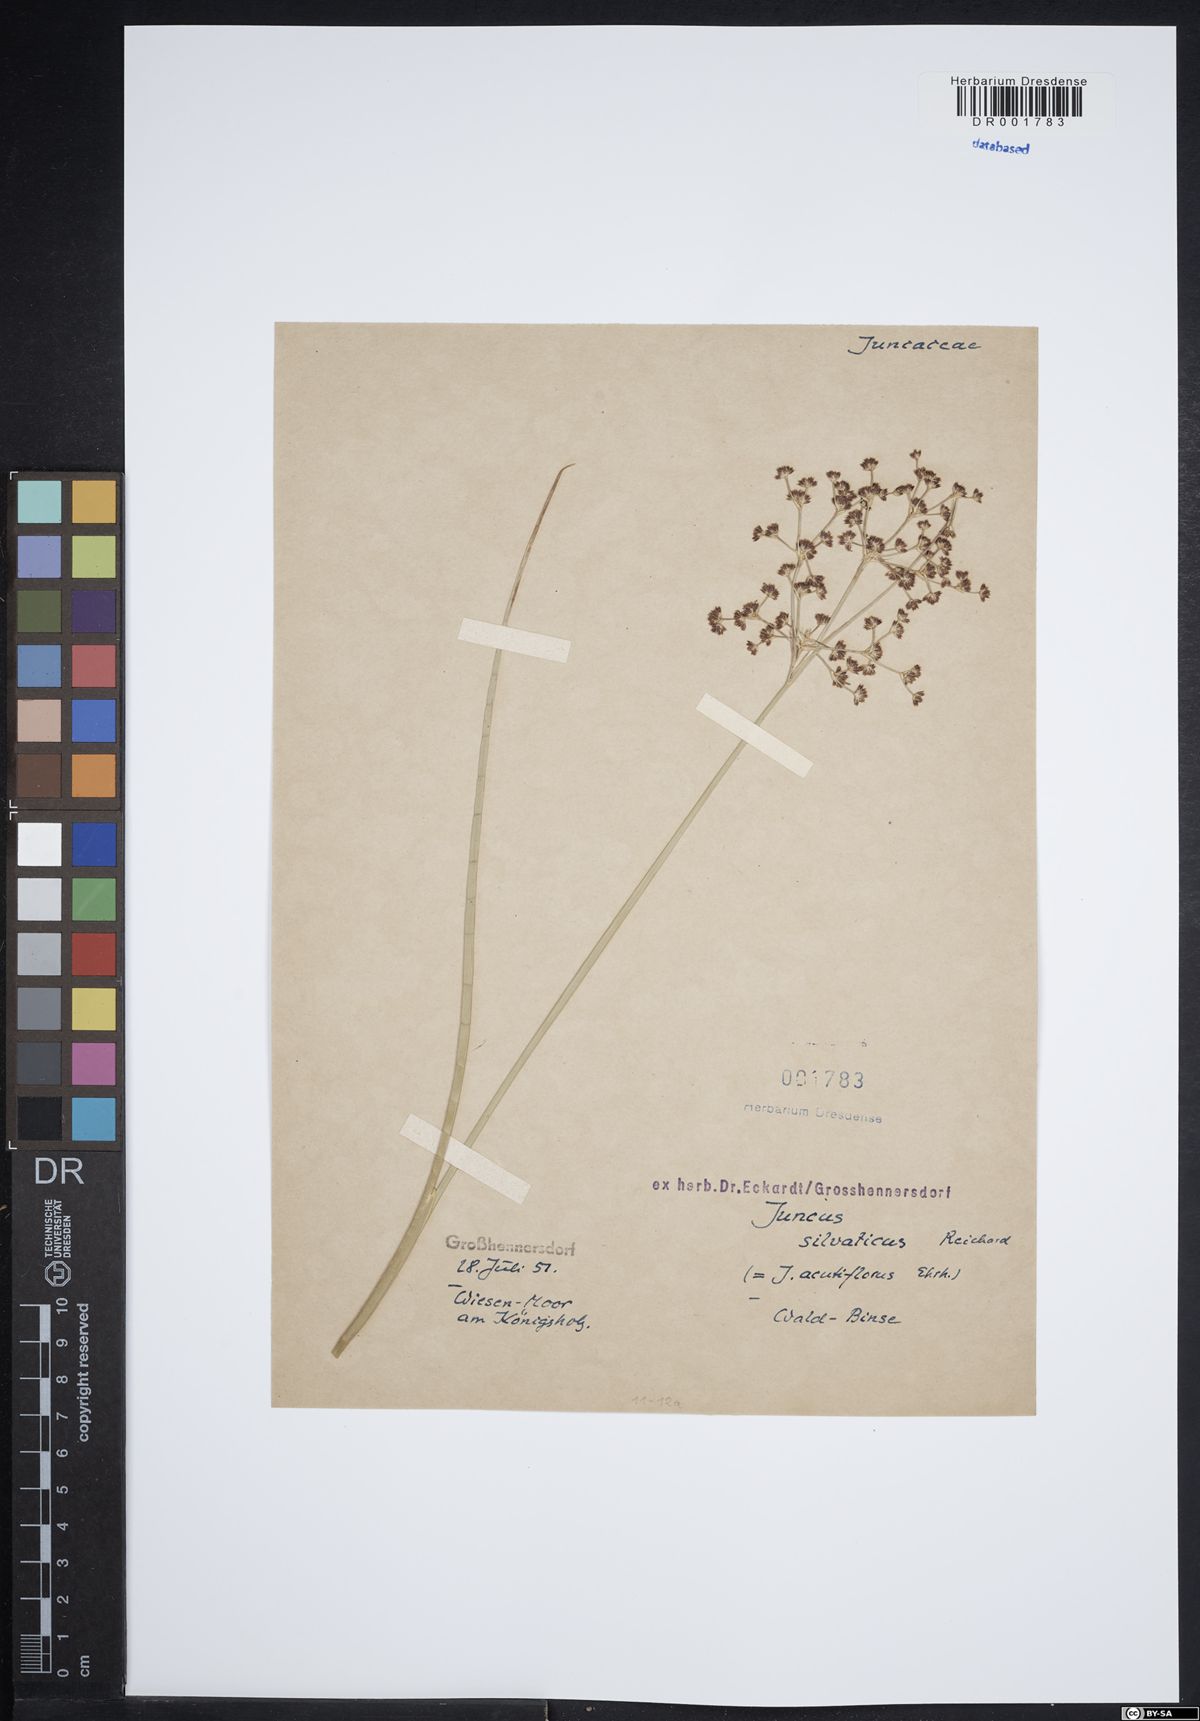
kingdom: Plantae
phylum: Tracheophyta
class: Liliopsida
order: Poales
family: Juncaceae
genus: Juncus
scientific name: Juncus acutiflorus
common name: Sharp-flowered rush
